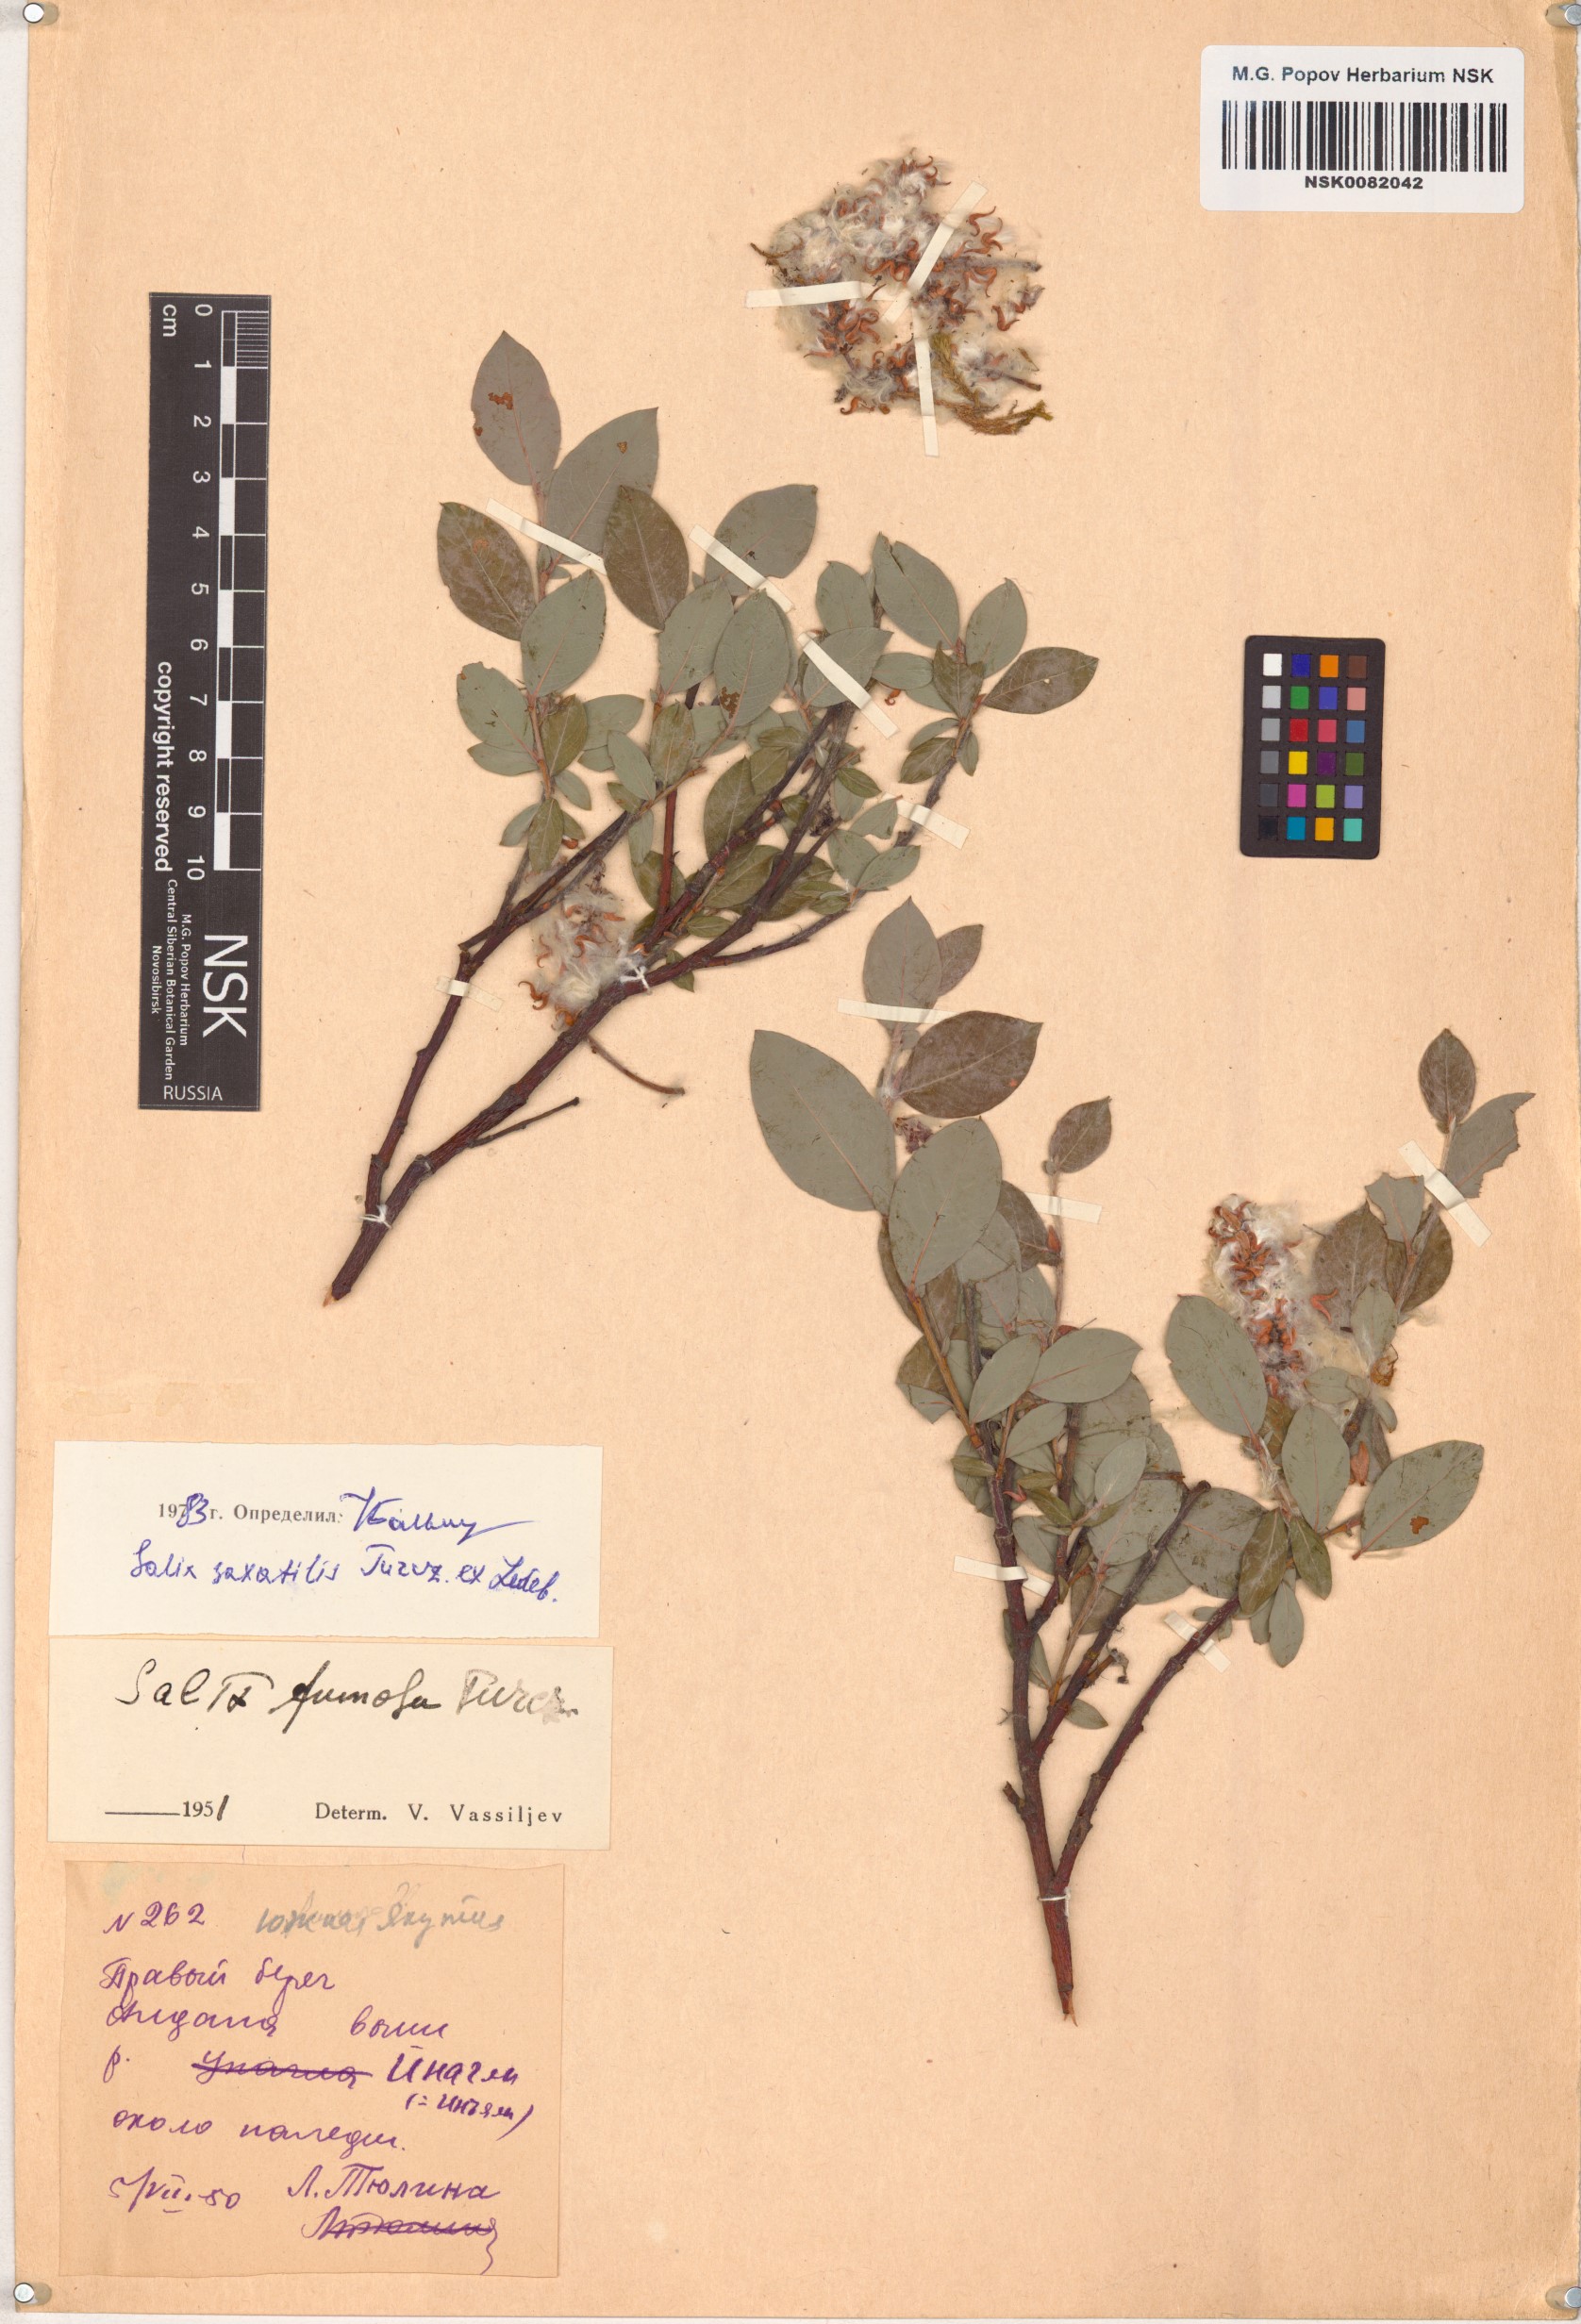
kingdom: Plantae
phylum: Tracheophyta
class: Magnoliopsida
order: Malpighiales
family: Salicaceae
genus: Salix
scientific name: Salix saxatilis
